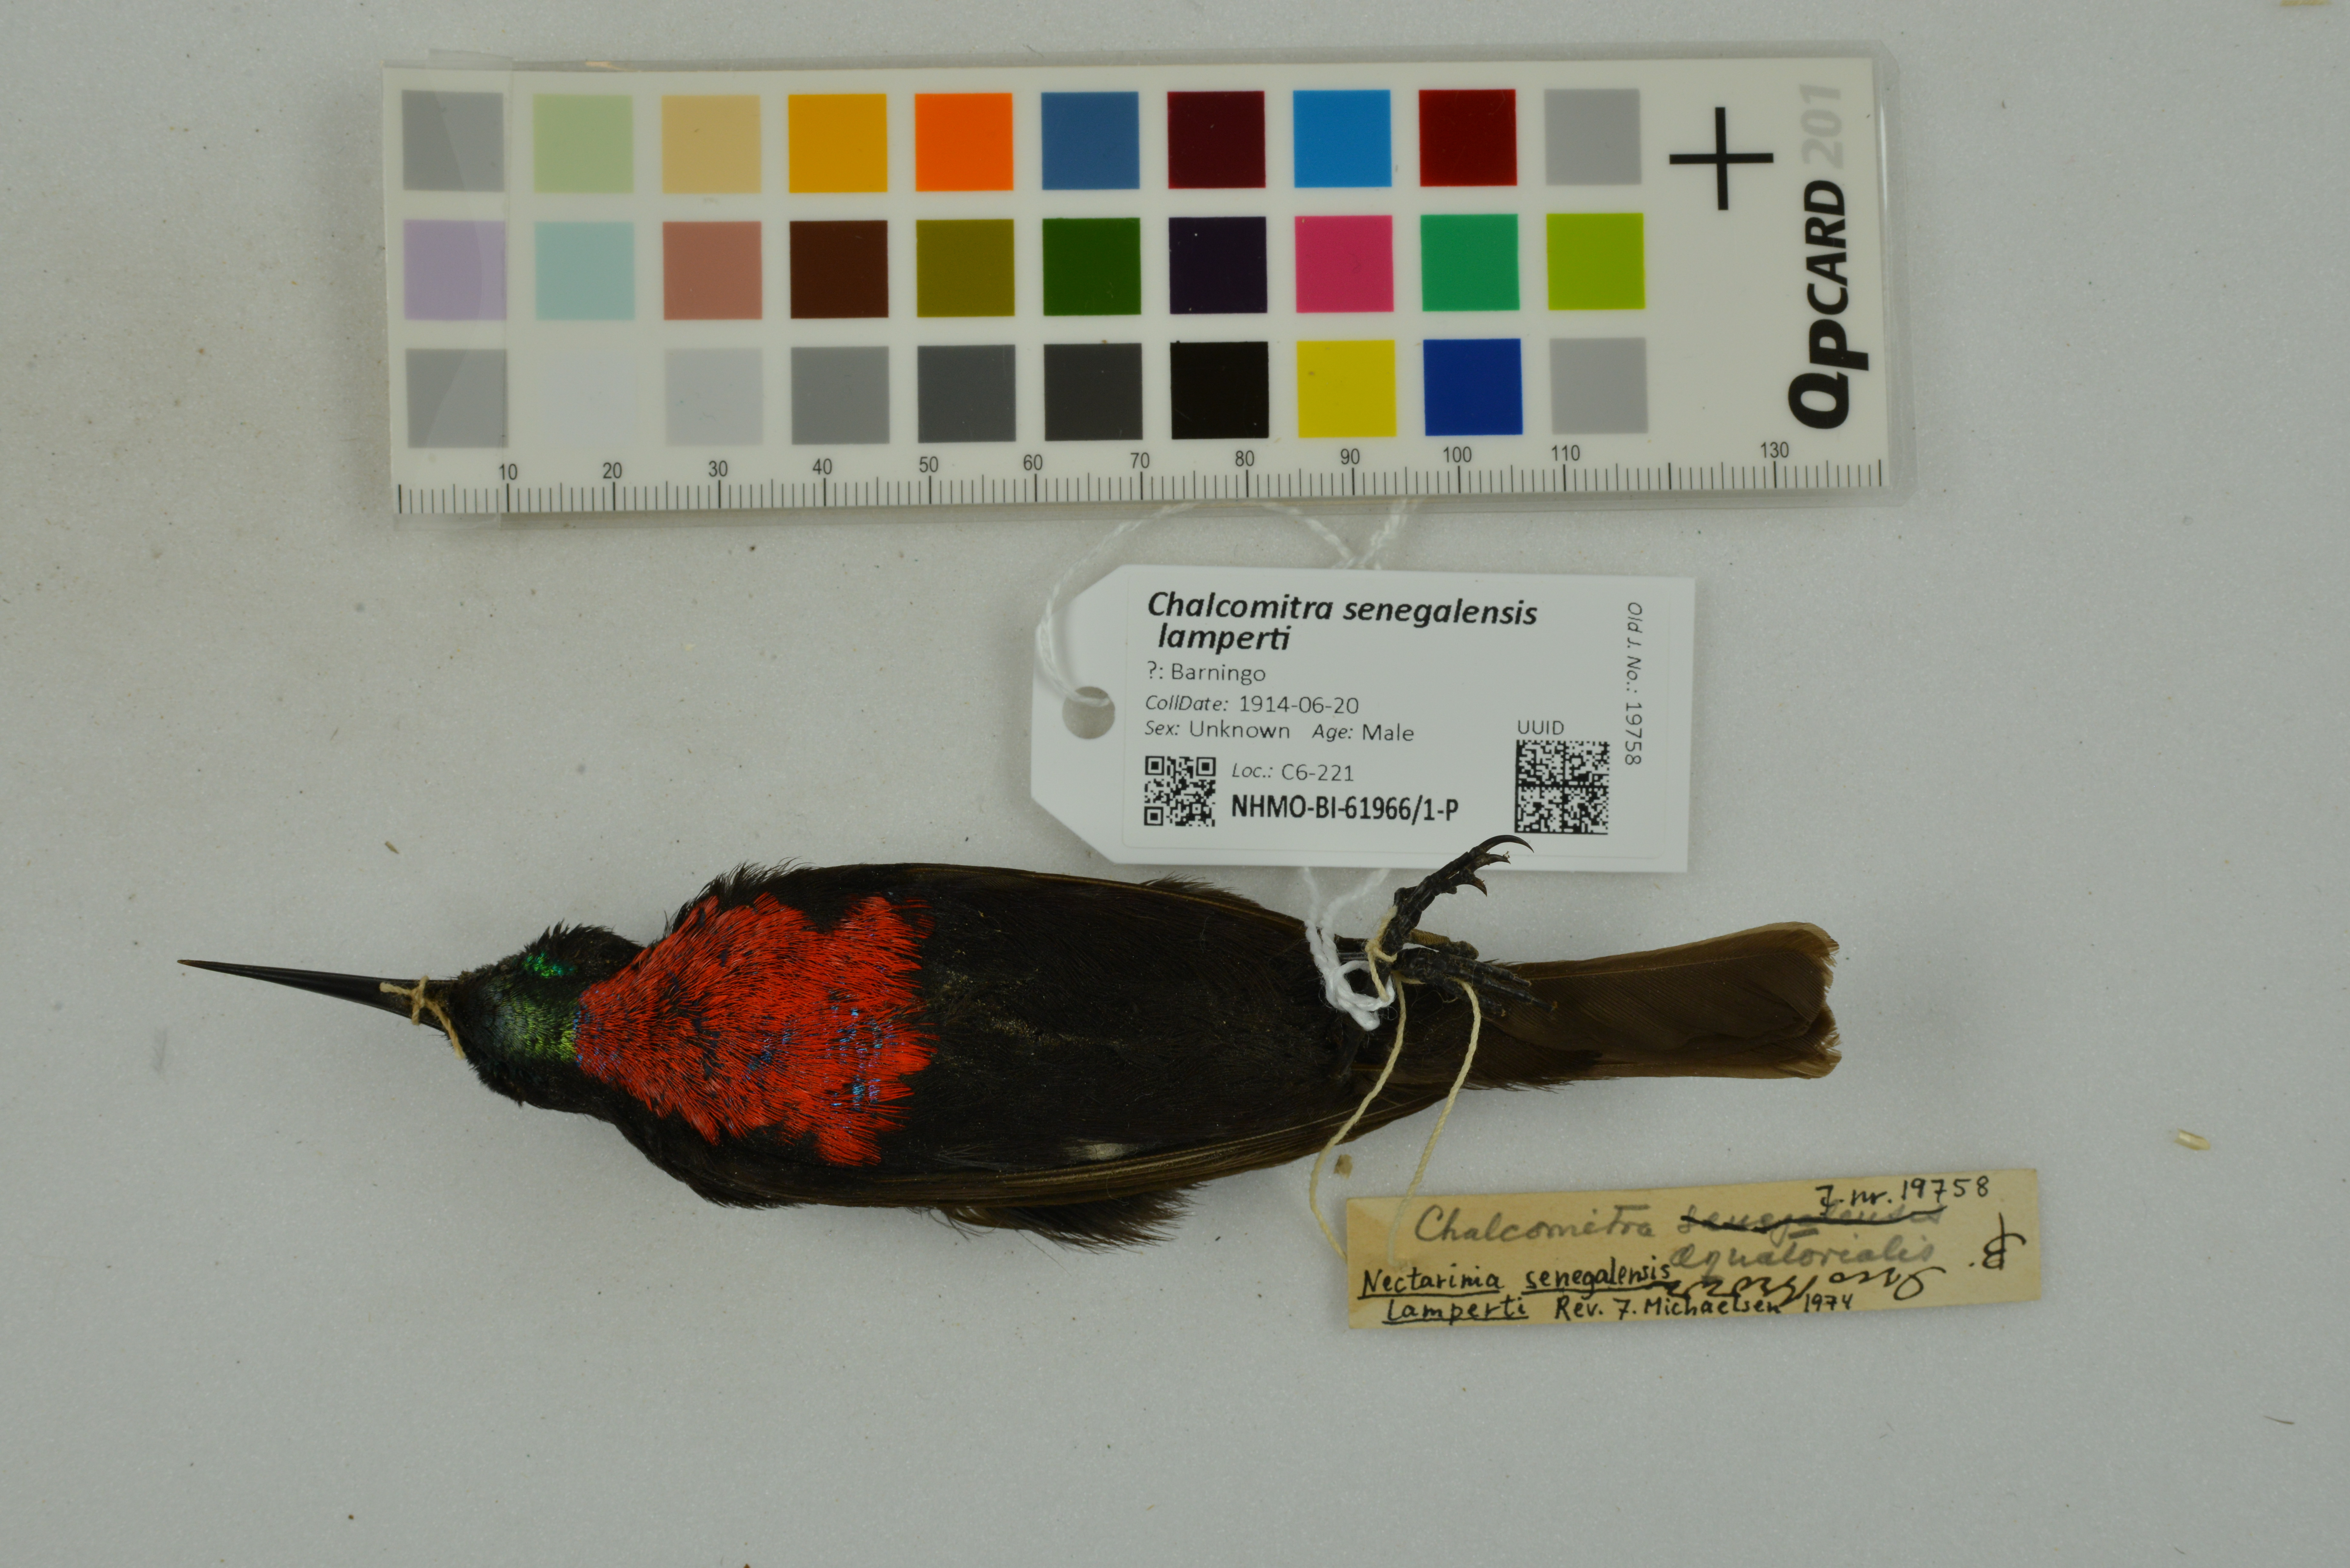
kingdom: Animalia
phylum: Chordata
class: Aves
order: Passeriformes
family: Nectariniidae
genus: Chalcomitra
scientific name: Chalcomitra senegalensis
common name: Scarlet-chested sunbird
